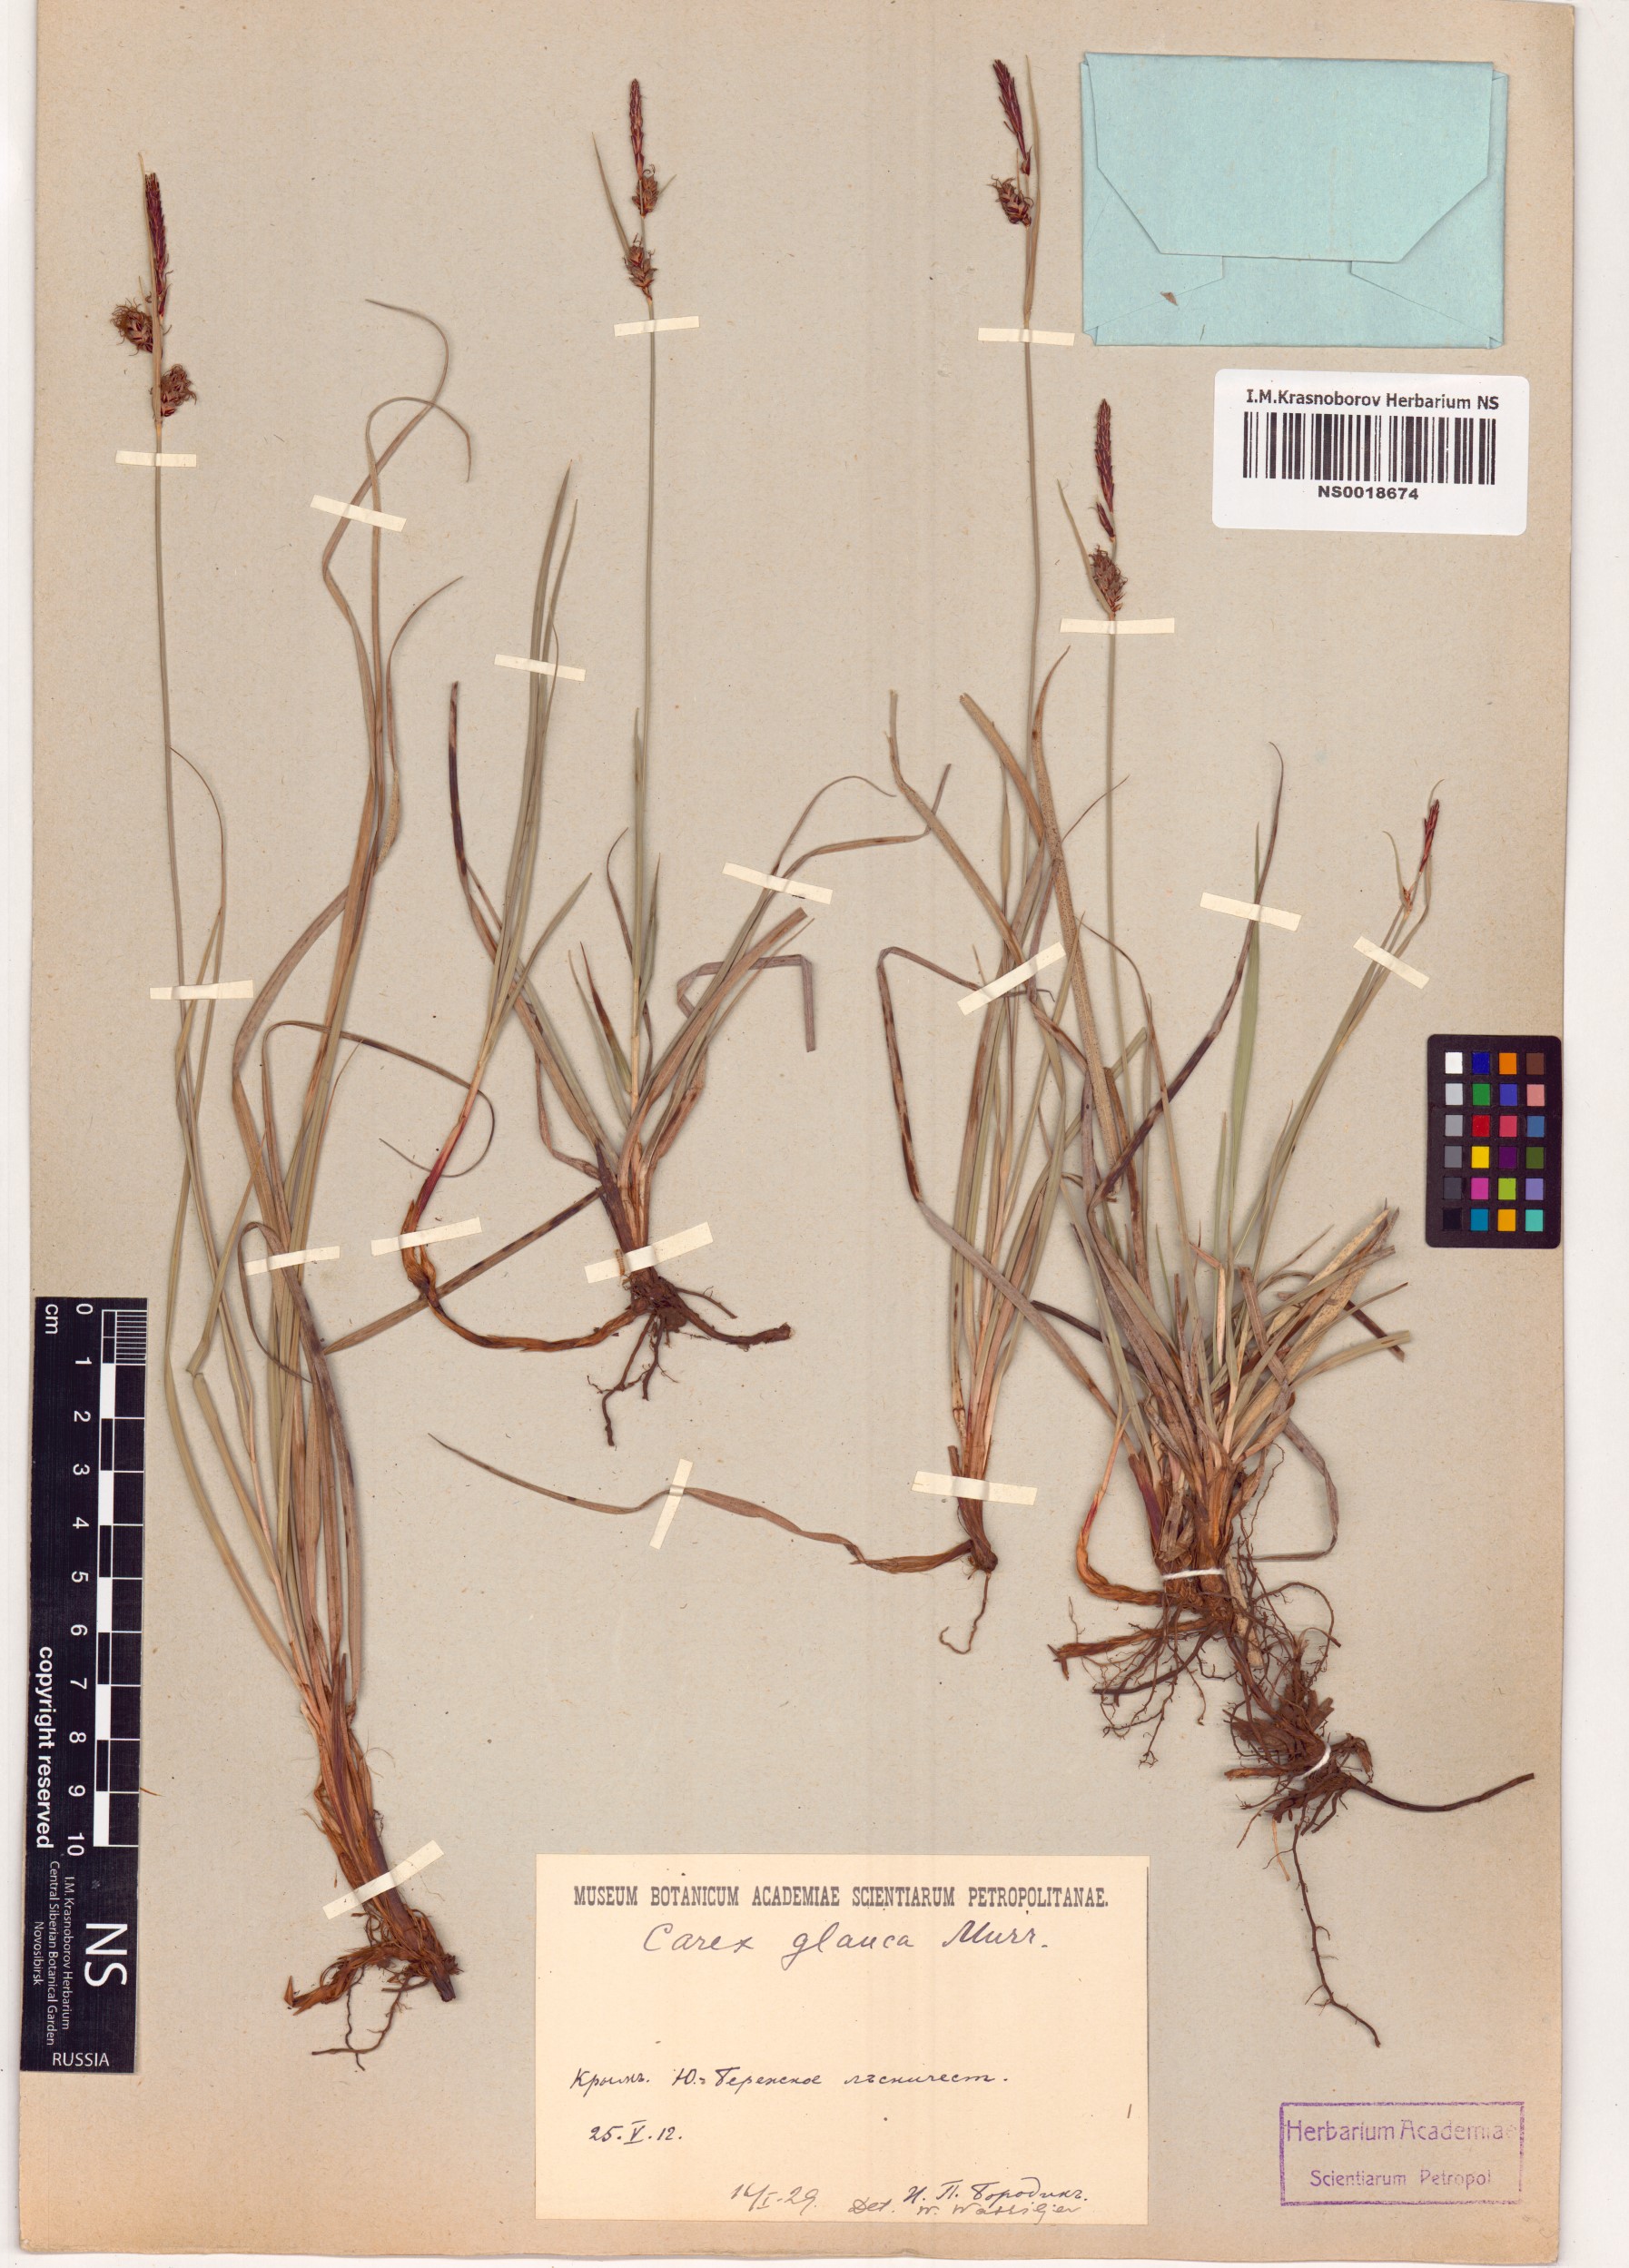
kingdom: Plantae
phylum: Tracheophyta
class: Liliopsida
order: Poales
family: Cyperaceae
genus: Carex
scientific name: Carex flacca
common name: Glaucous sedge
